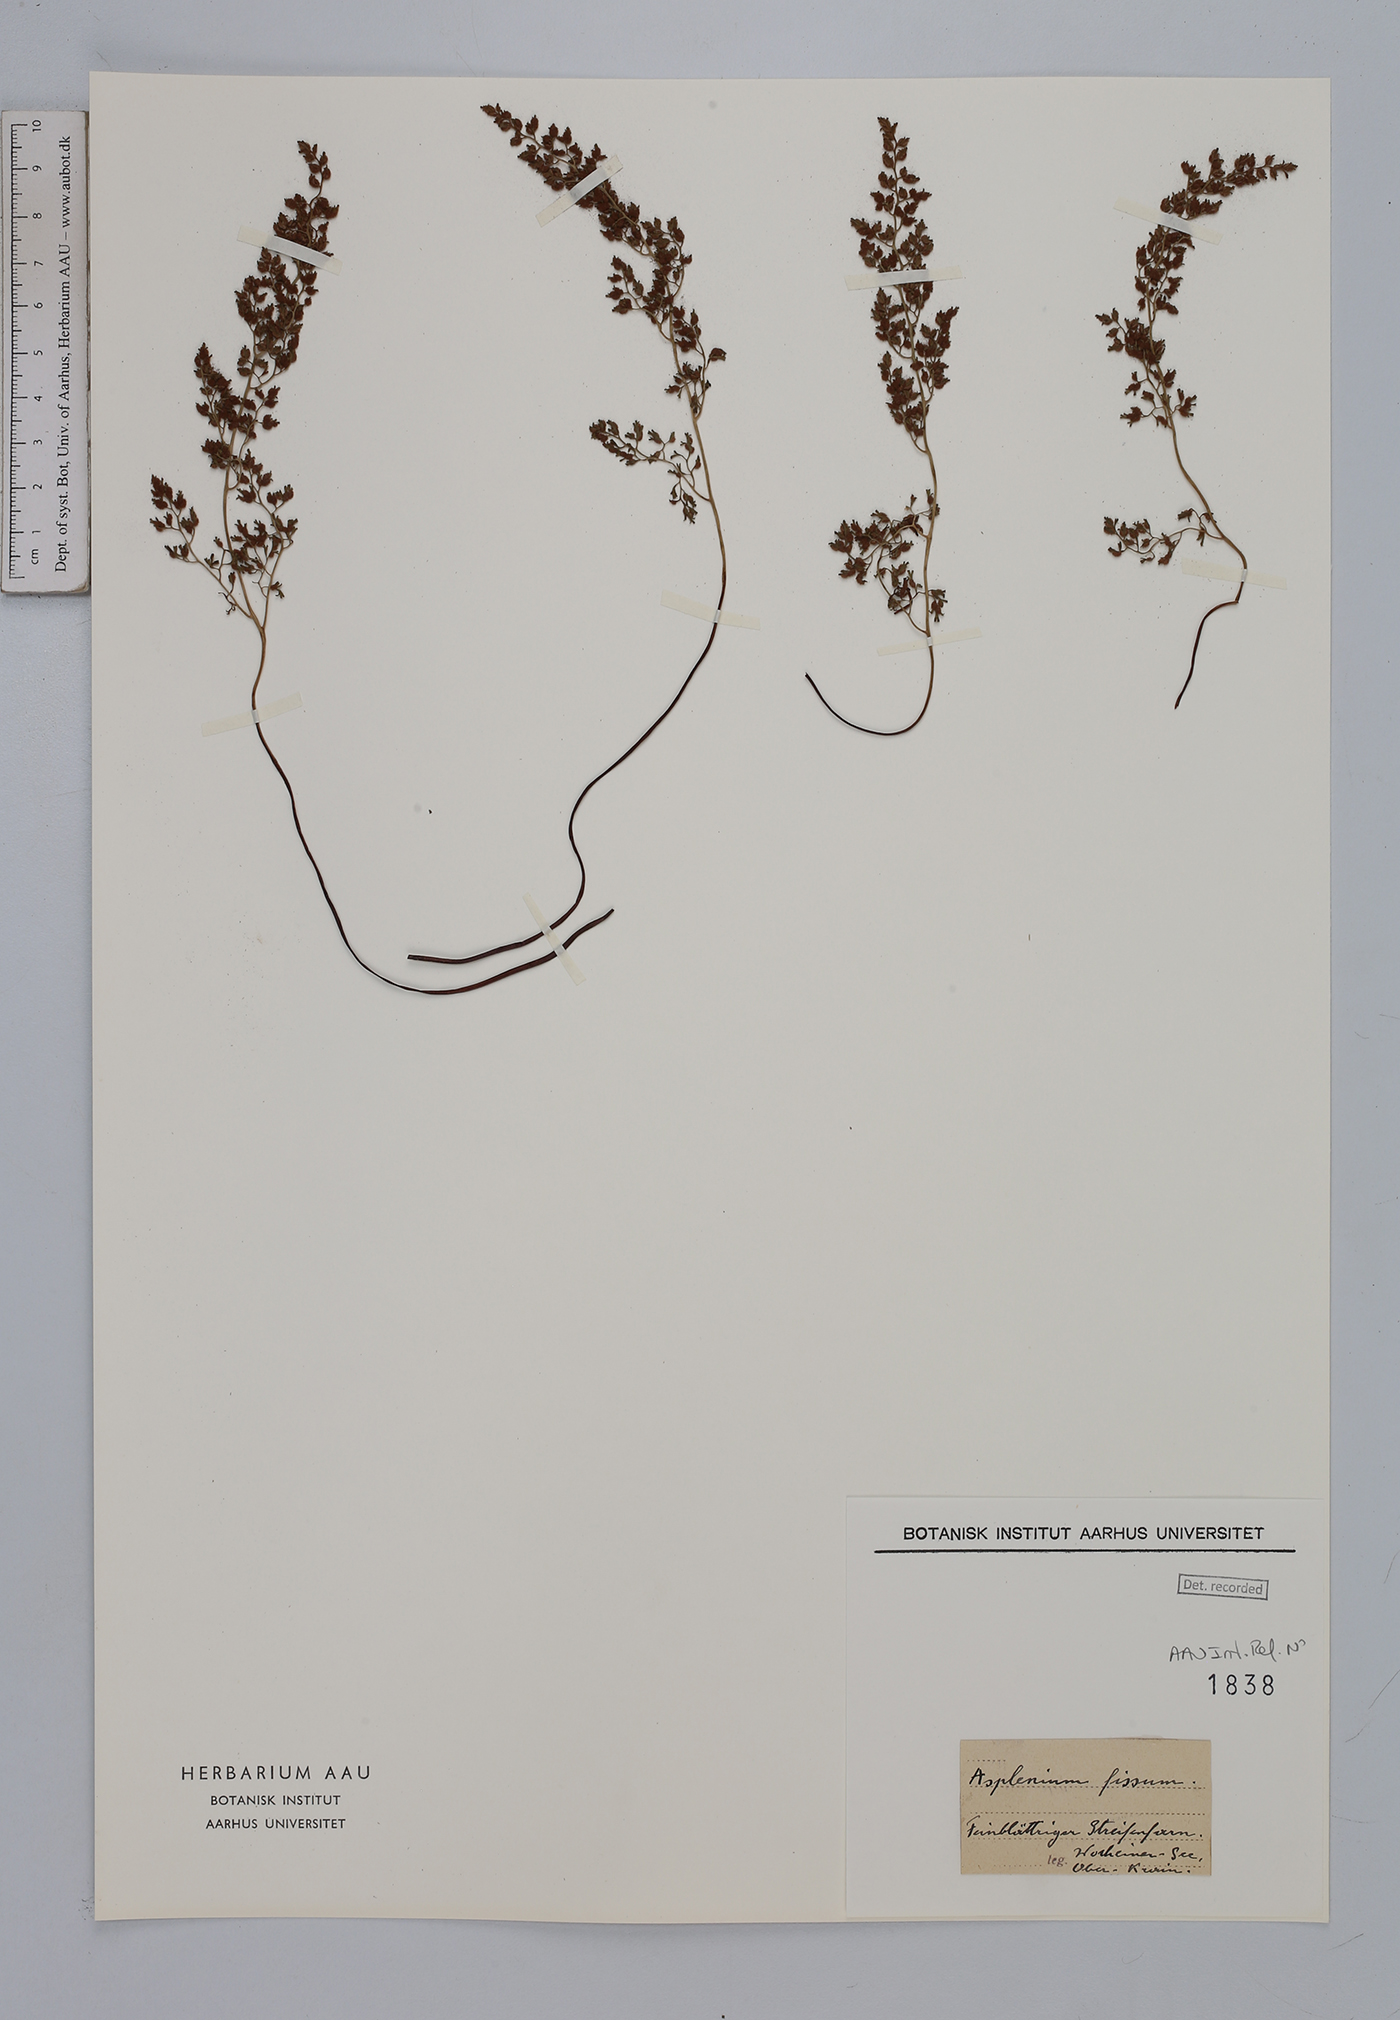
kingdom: Plantae
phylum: Tracheophyta
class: Polypodiopsida
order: Polypodiales
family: Aspleniaceae
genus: Asplenium
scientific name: Asplenium fissum
